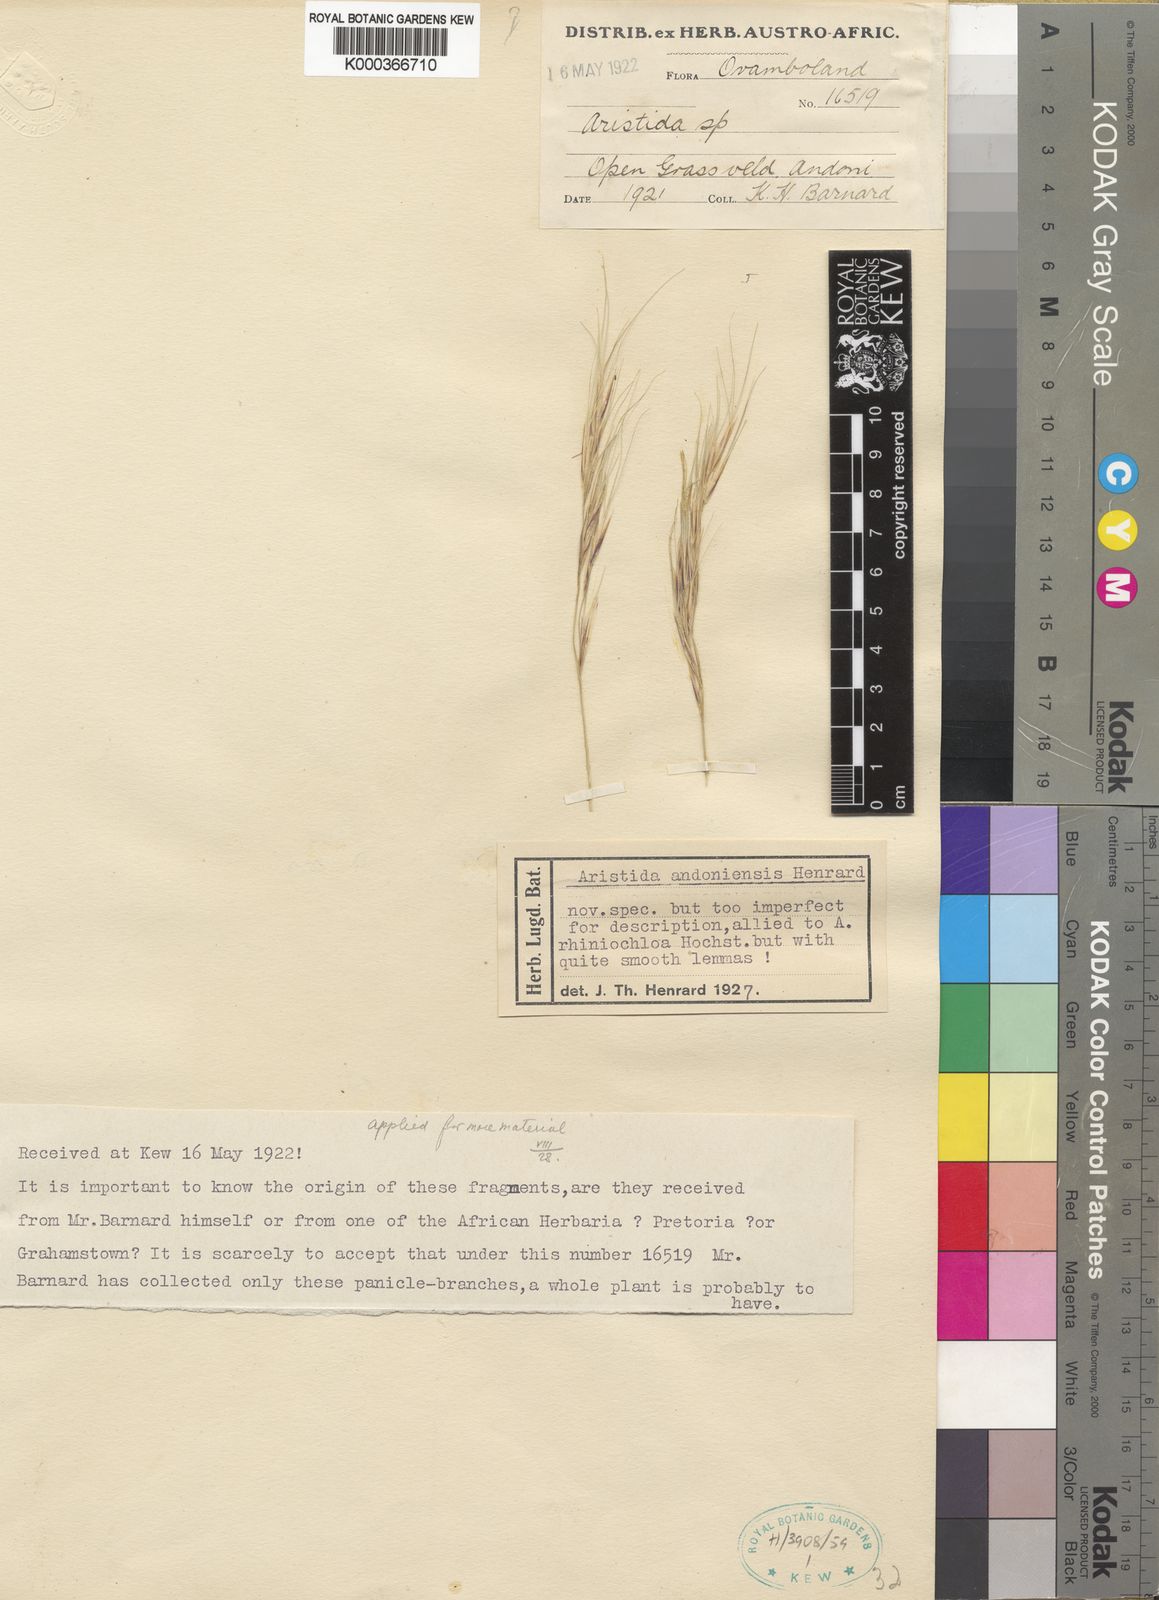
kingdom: Plantae
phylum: Tracheophyta
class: Liliopsida
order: Poales
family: Poaceae
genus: Aristida
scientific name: Aristida rhiniochloa
